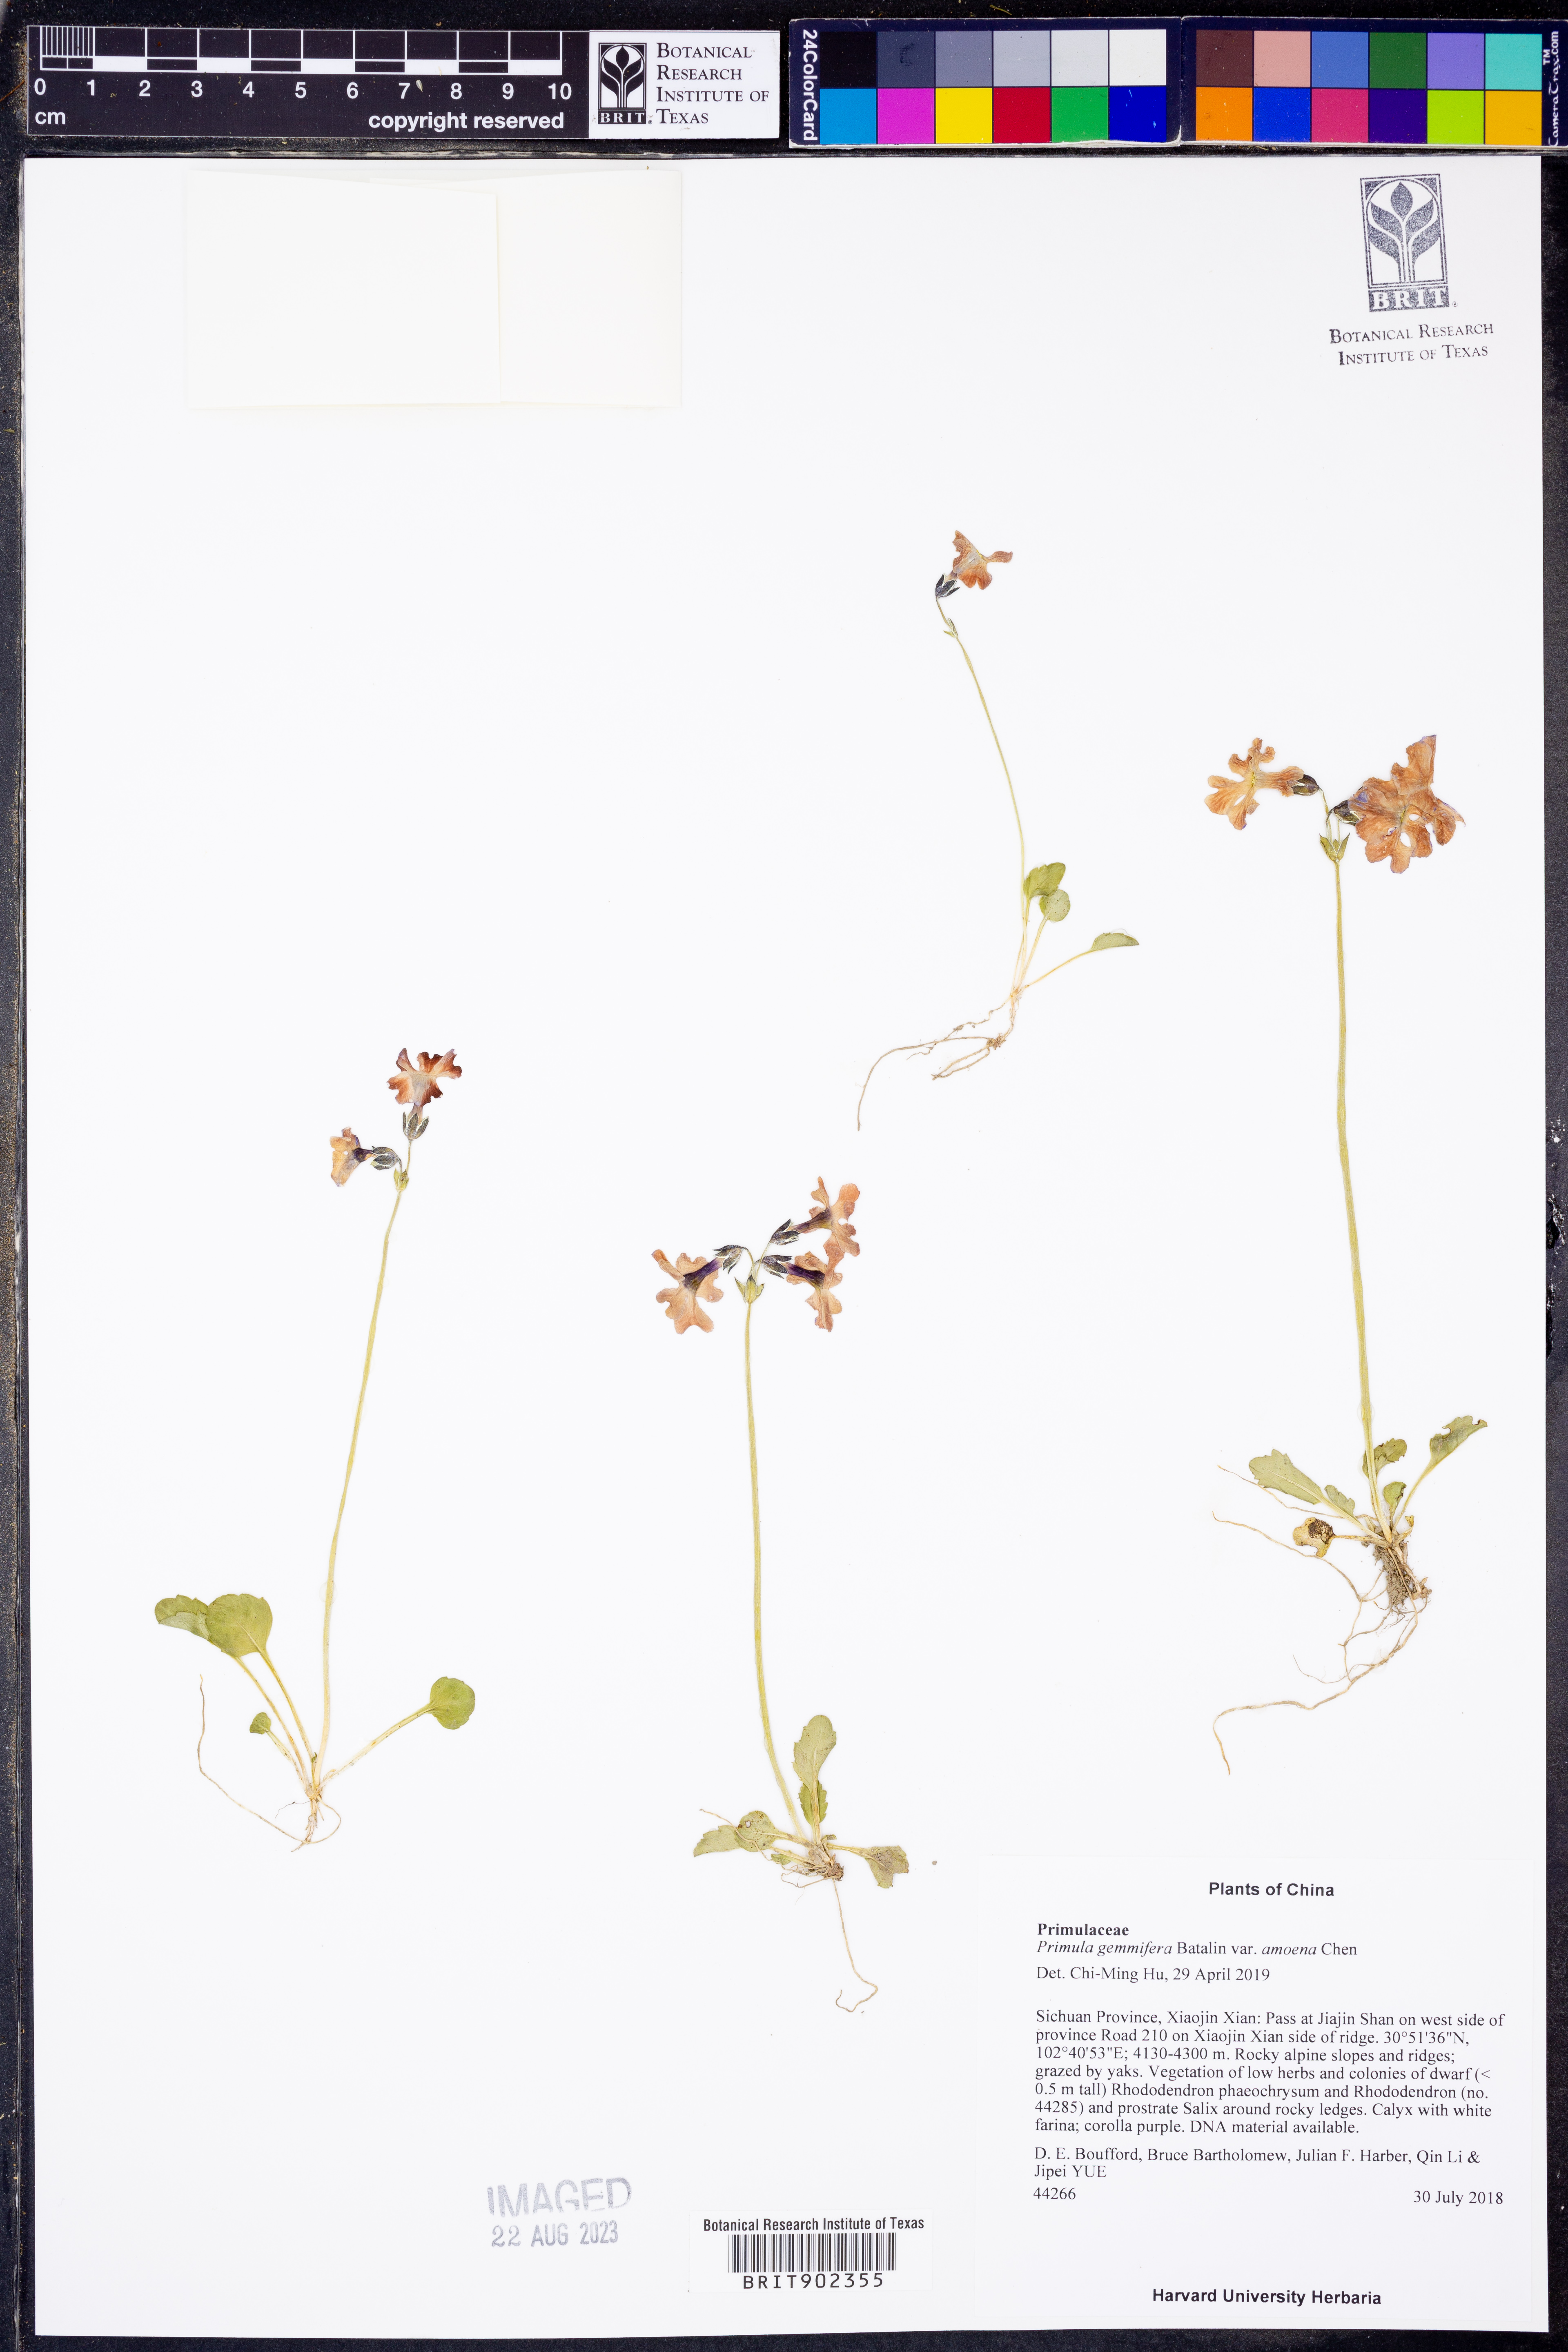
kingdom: Plantae
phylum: Tracheophyta
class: Magnoliopsida
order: Ericales
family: Primulaceae
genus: Primula
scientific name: Primula
